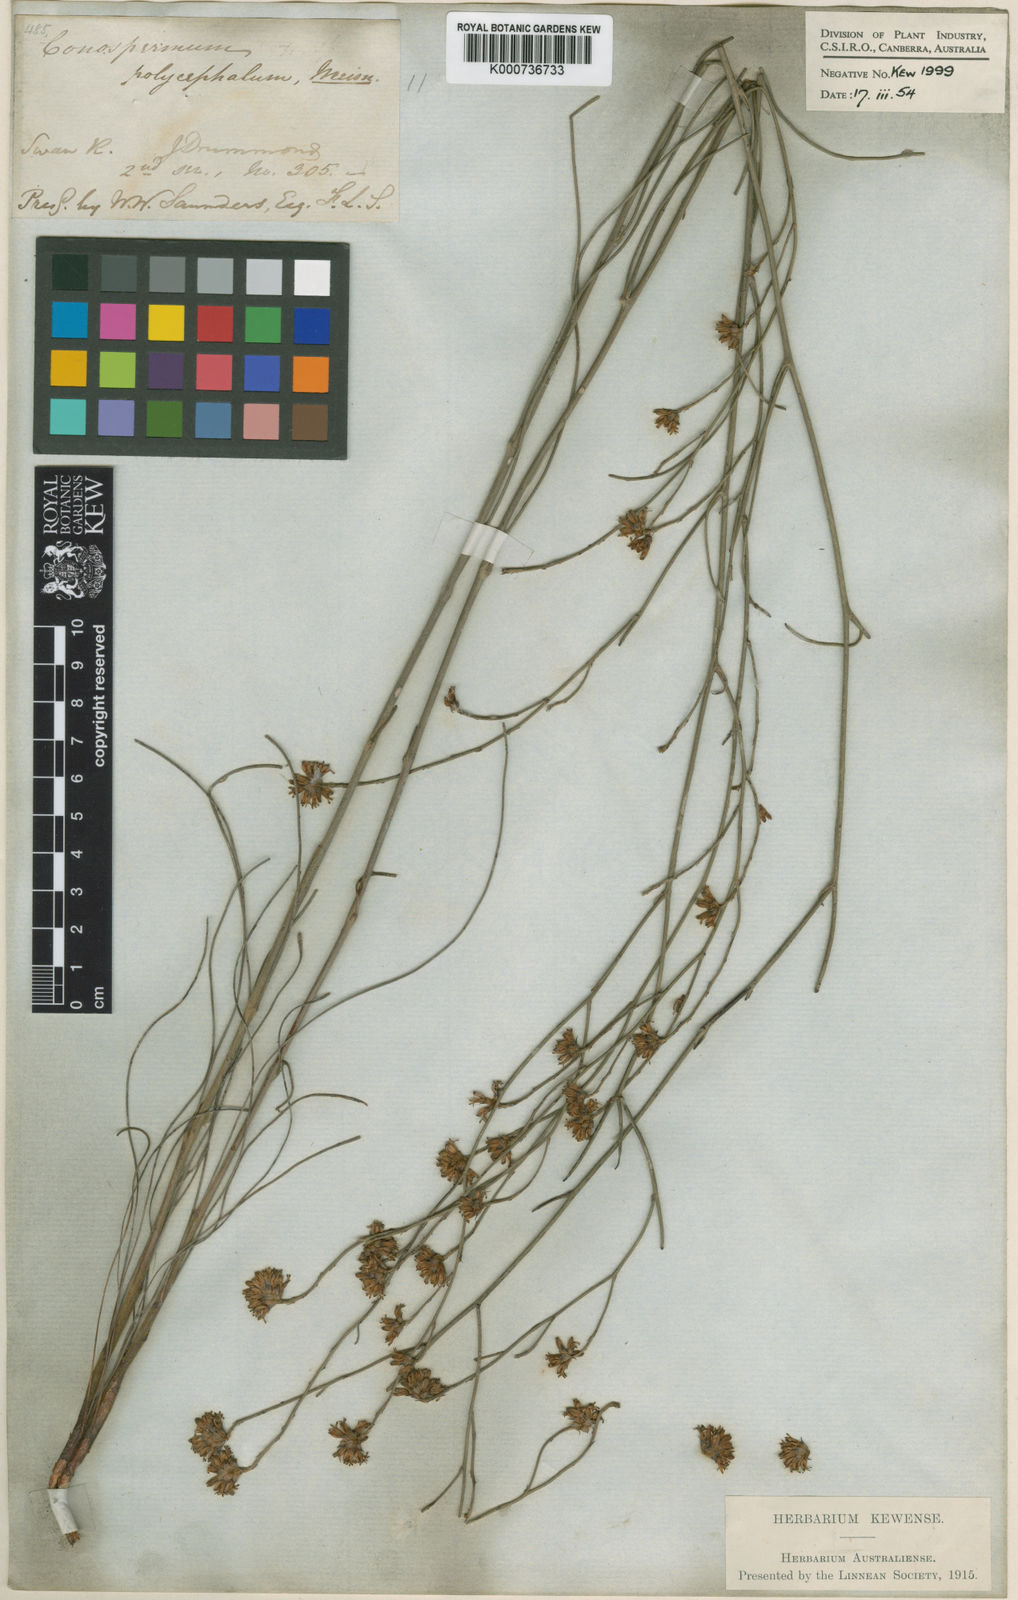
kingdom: Plantae
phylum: Tracheophyta
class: Magnoliopsida
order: Proteales
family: Proteaceae
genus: Conospermum
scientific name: Conospermum polycephalum
